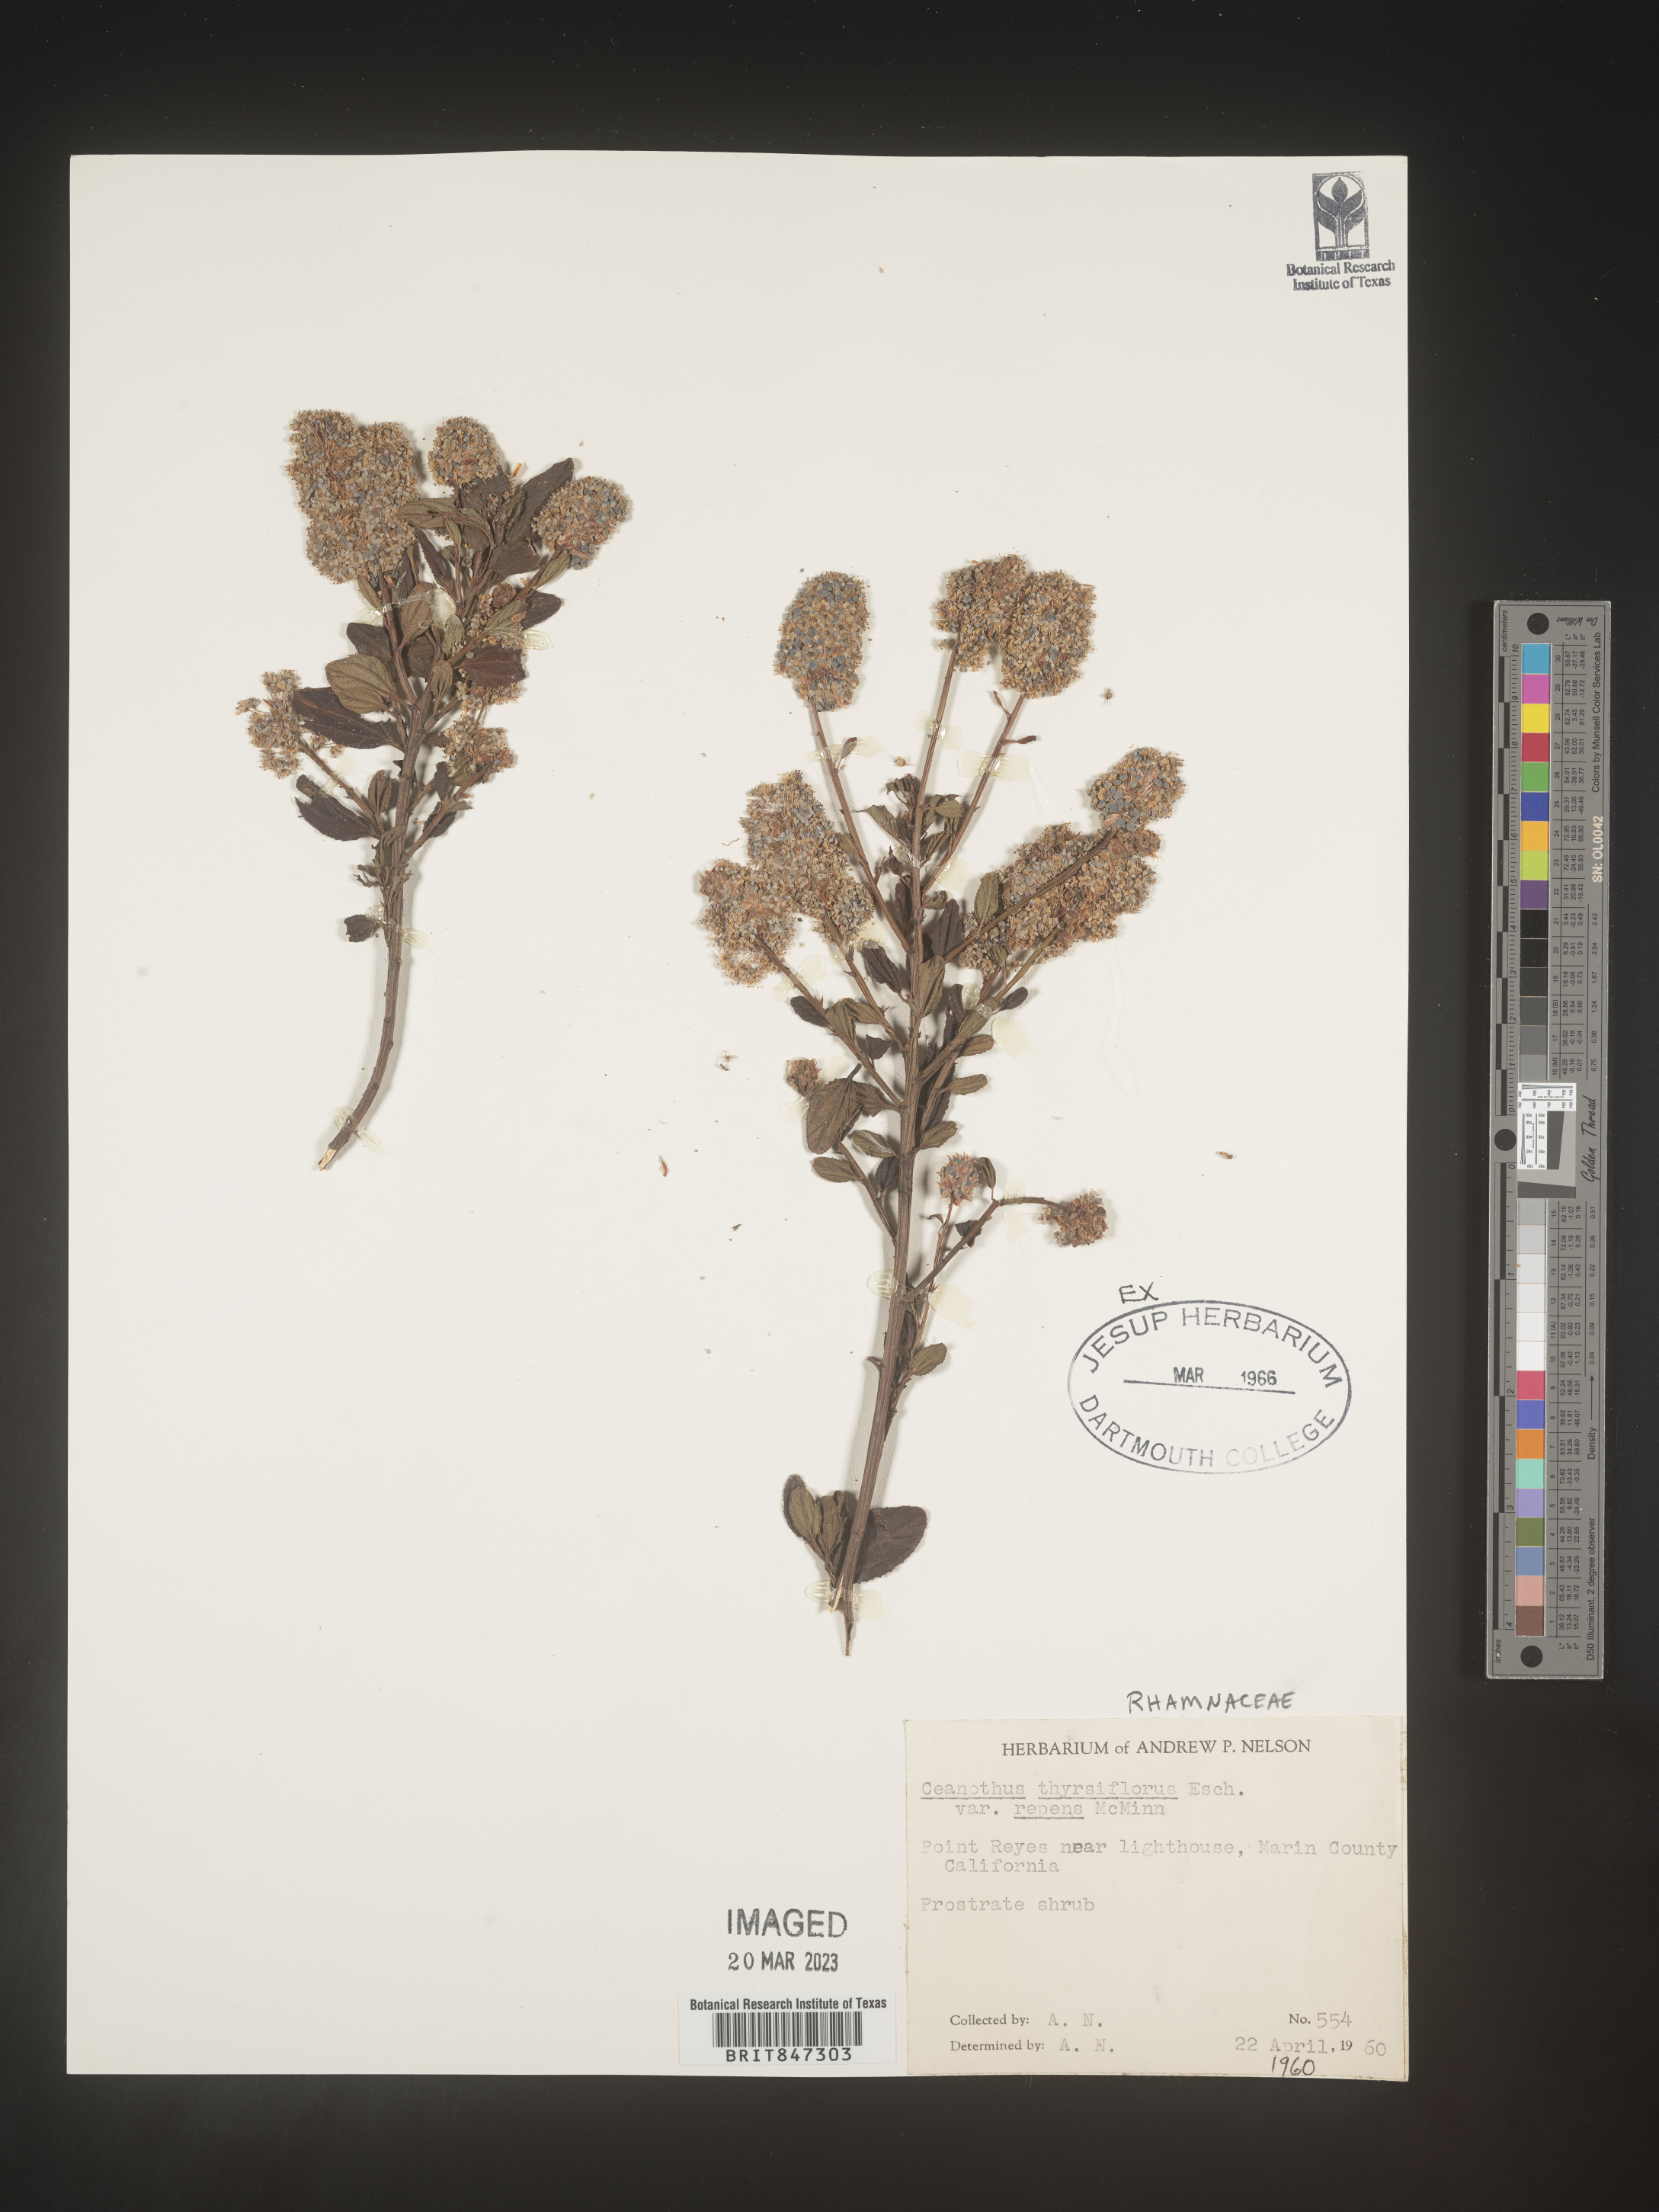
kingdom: Plantae
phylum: Tracheophyta
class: Magnoliopsida
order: Rosales
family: Rhamnaceae
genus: Ceanothus
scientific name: Ceanothus
